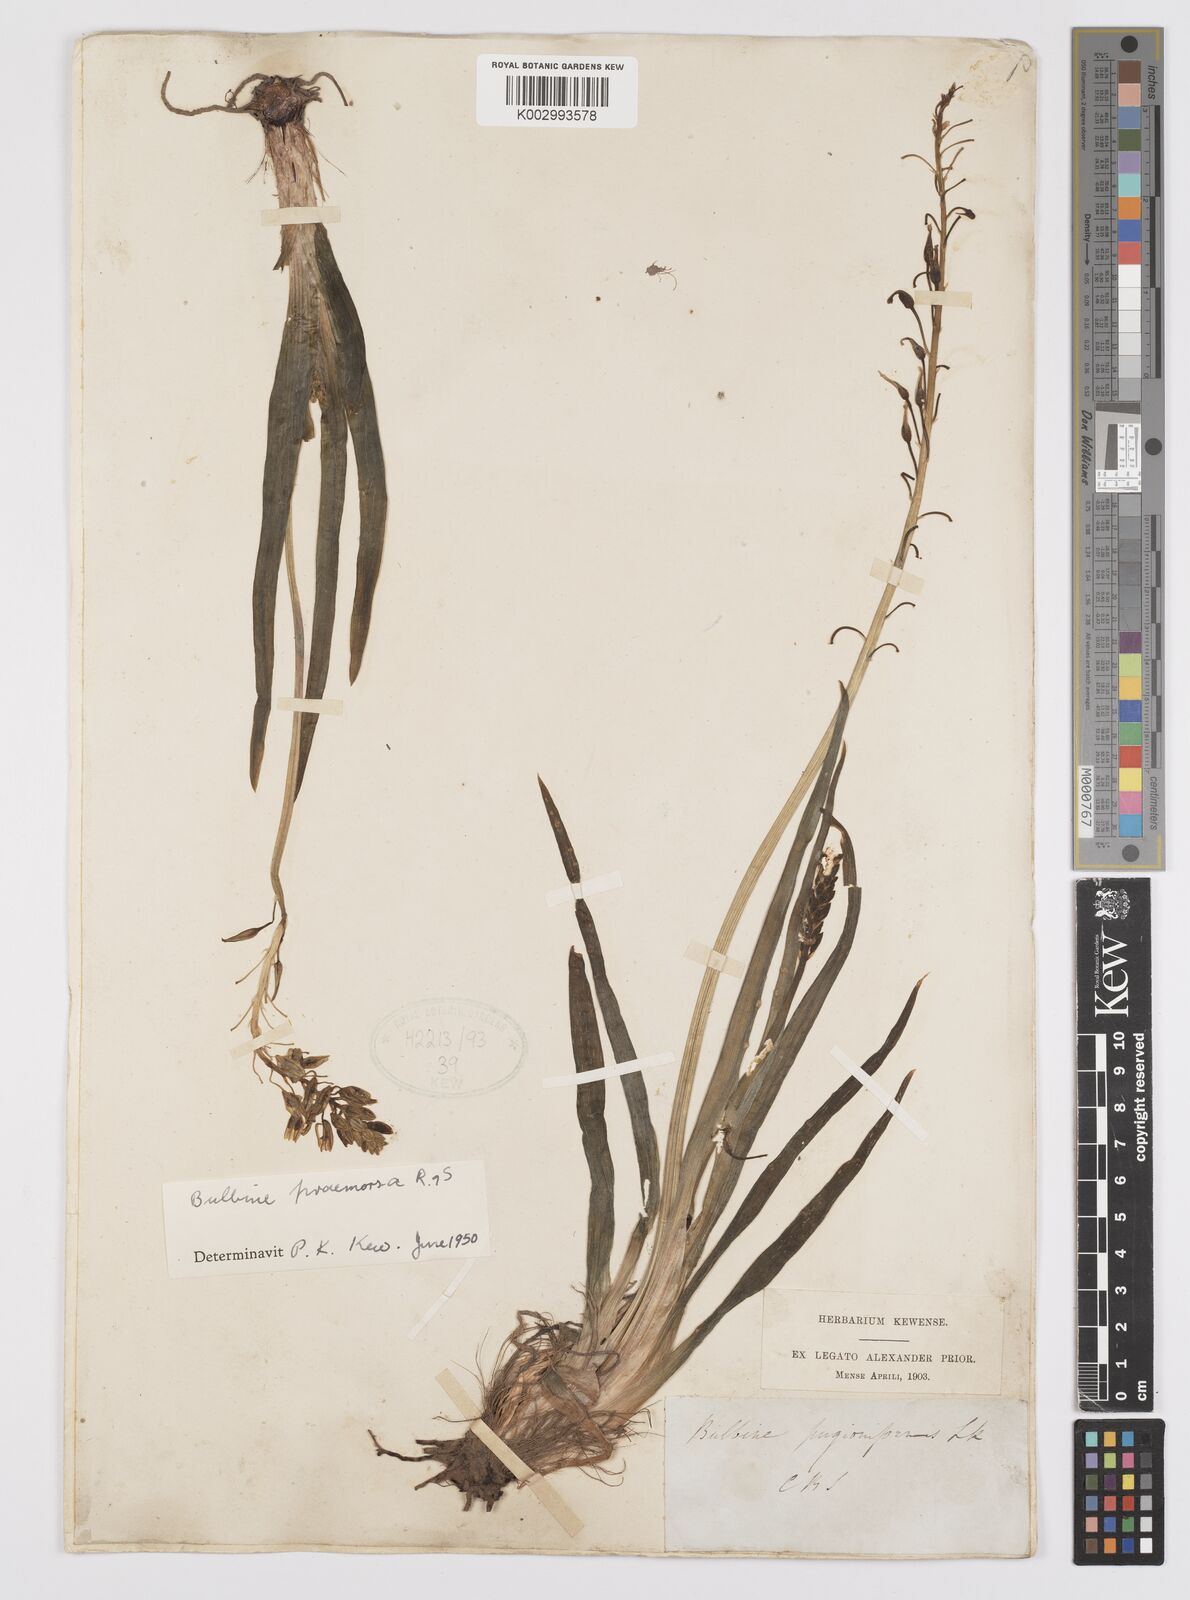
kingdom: Plantae
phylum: Tracheophyta
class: Liliopsida
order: Asparagales
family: Asphodelaceae
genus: Bulbine
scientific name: Bulbine praemorsa
